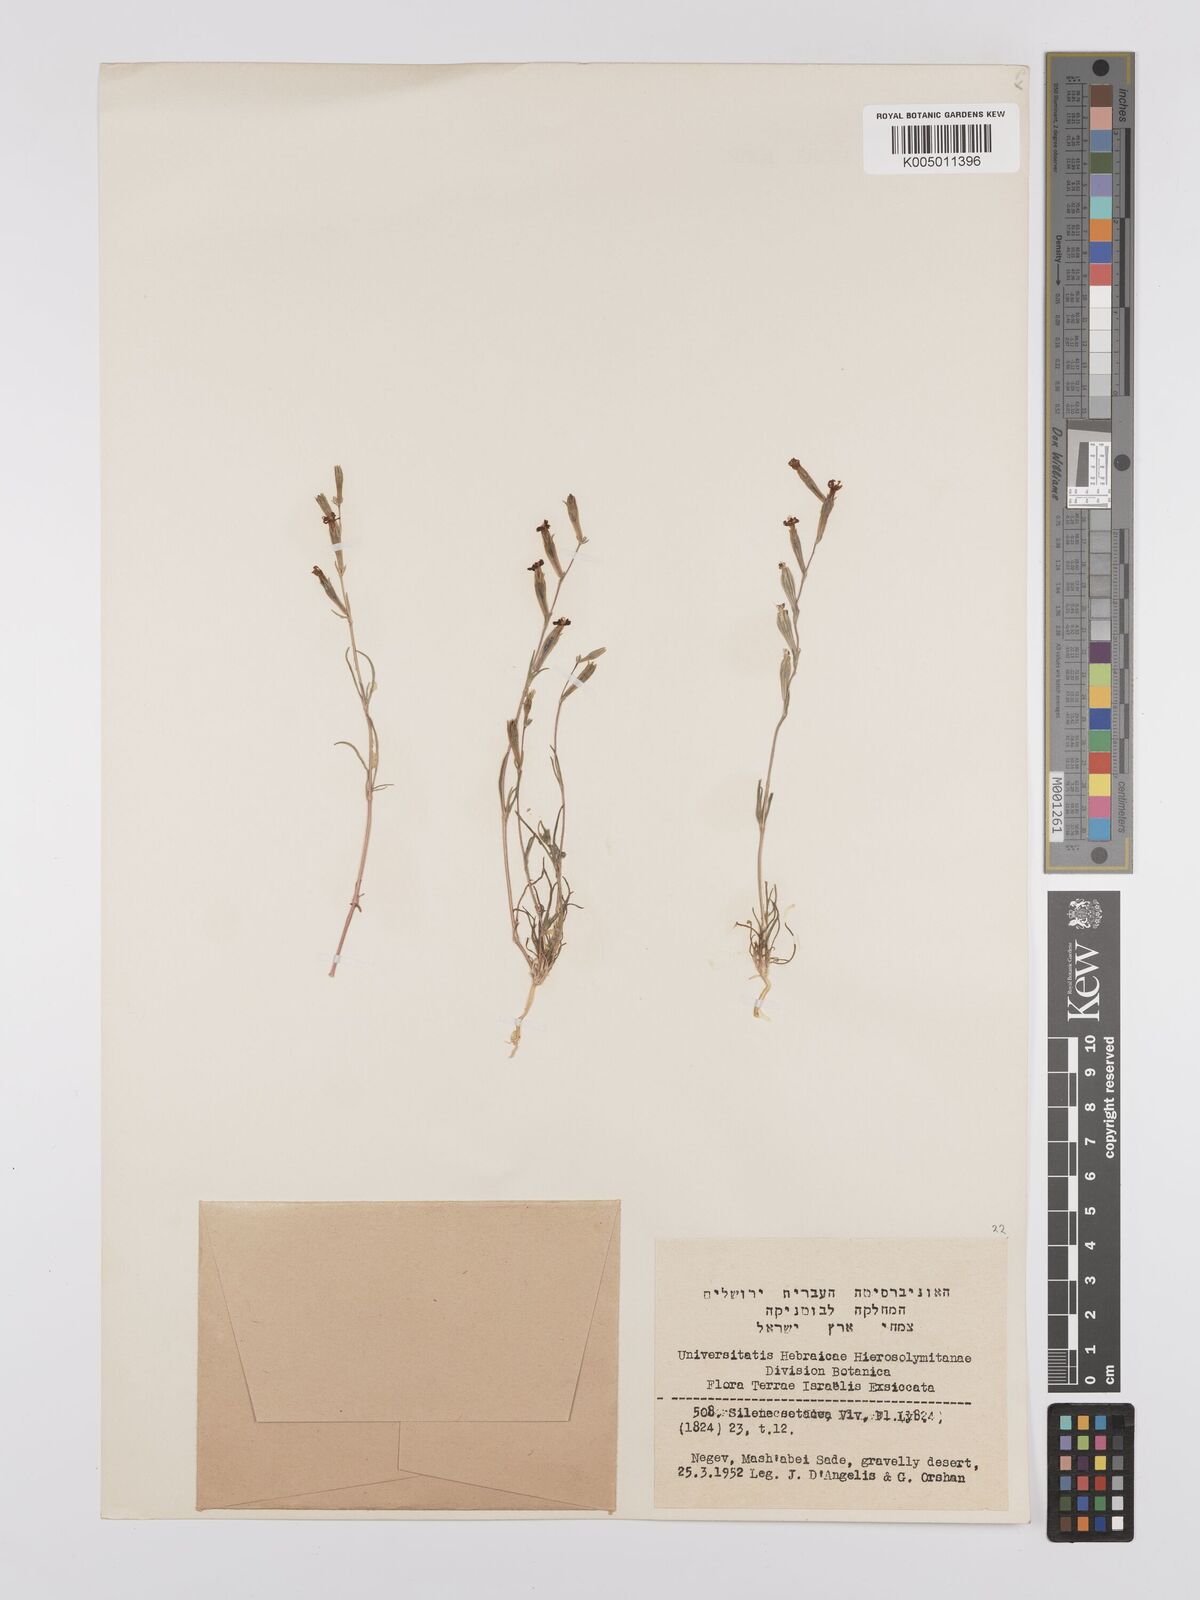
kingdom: Plantae
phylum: Tracheophyta
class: Magnoliopsida
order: Caryophyllales
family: Caryophyllaceae
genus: Silene
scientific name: Silene
